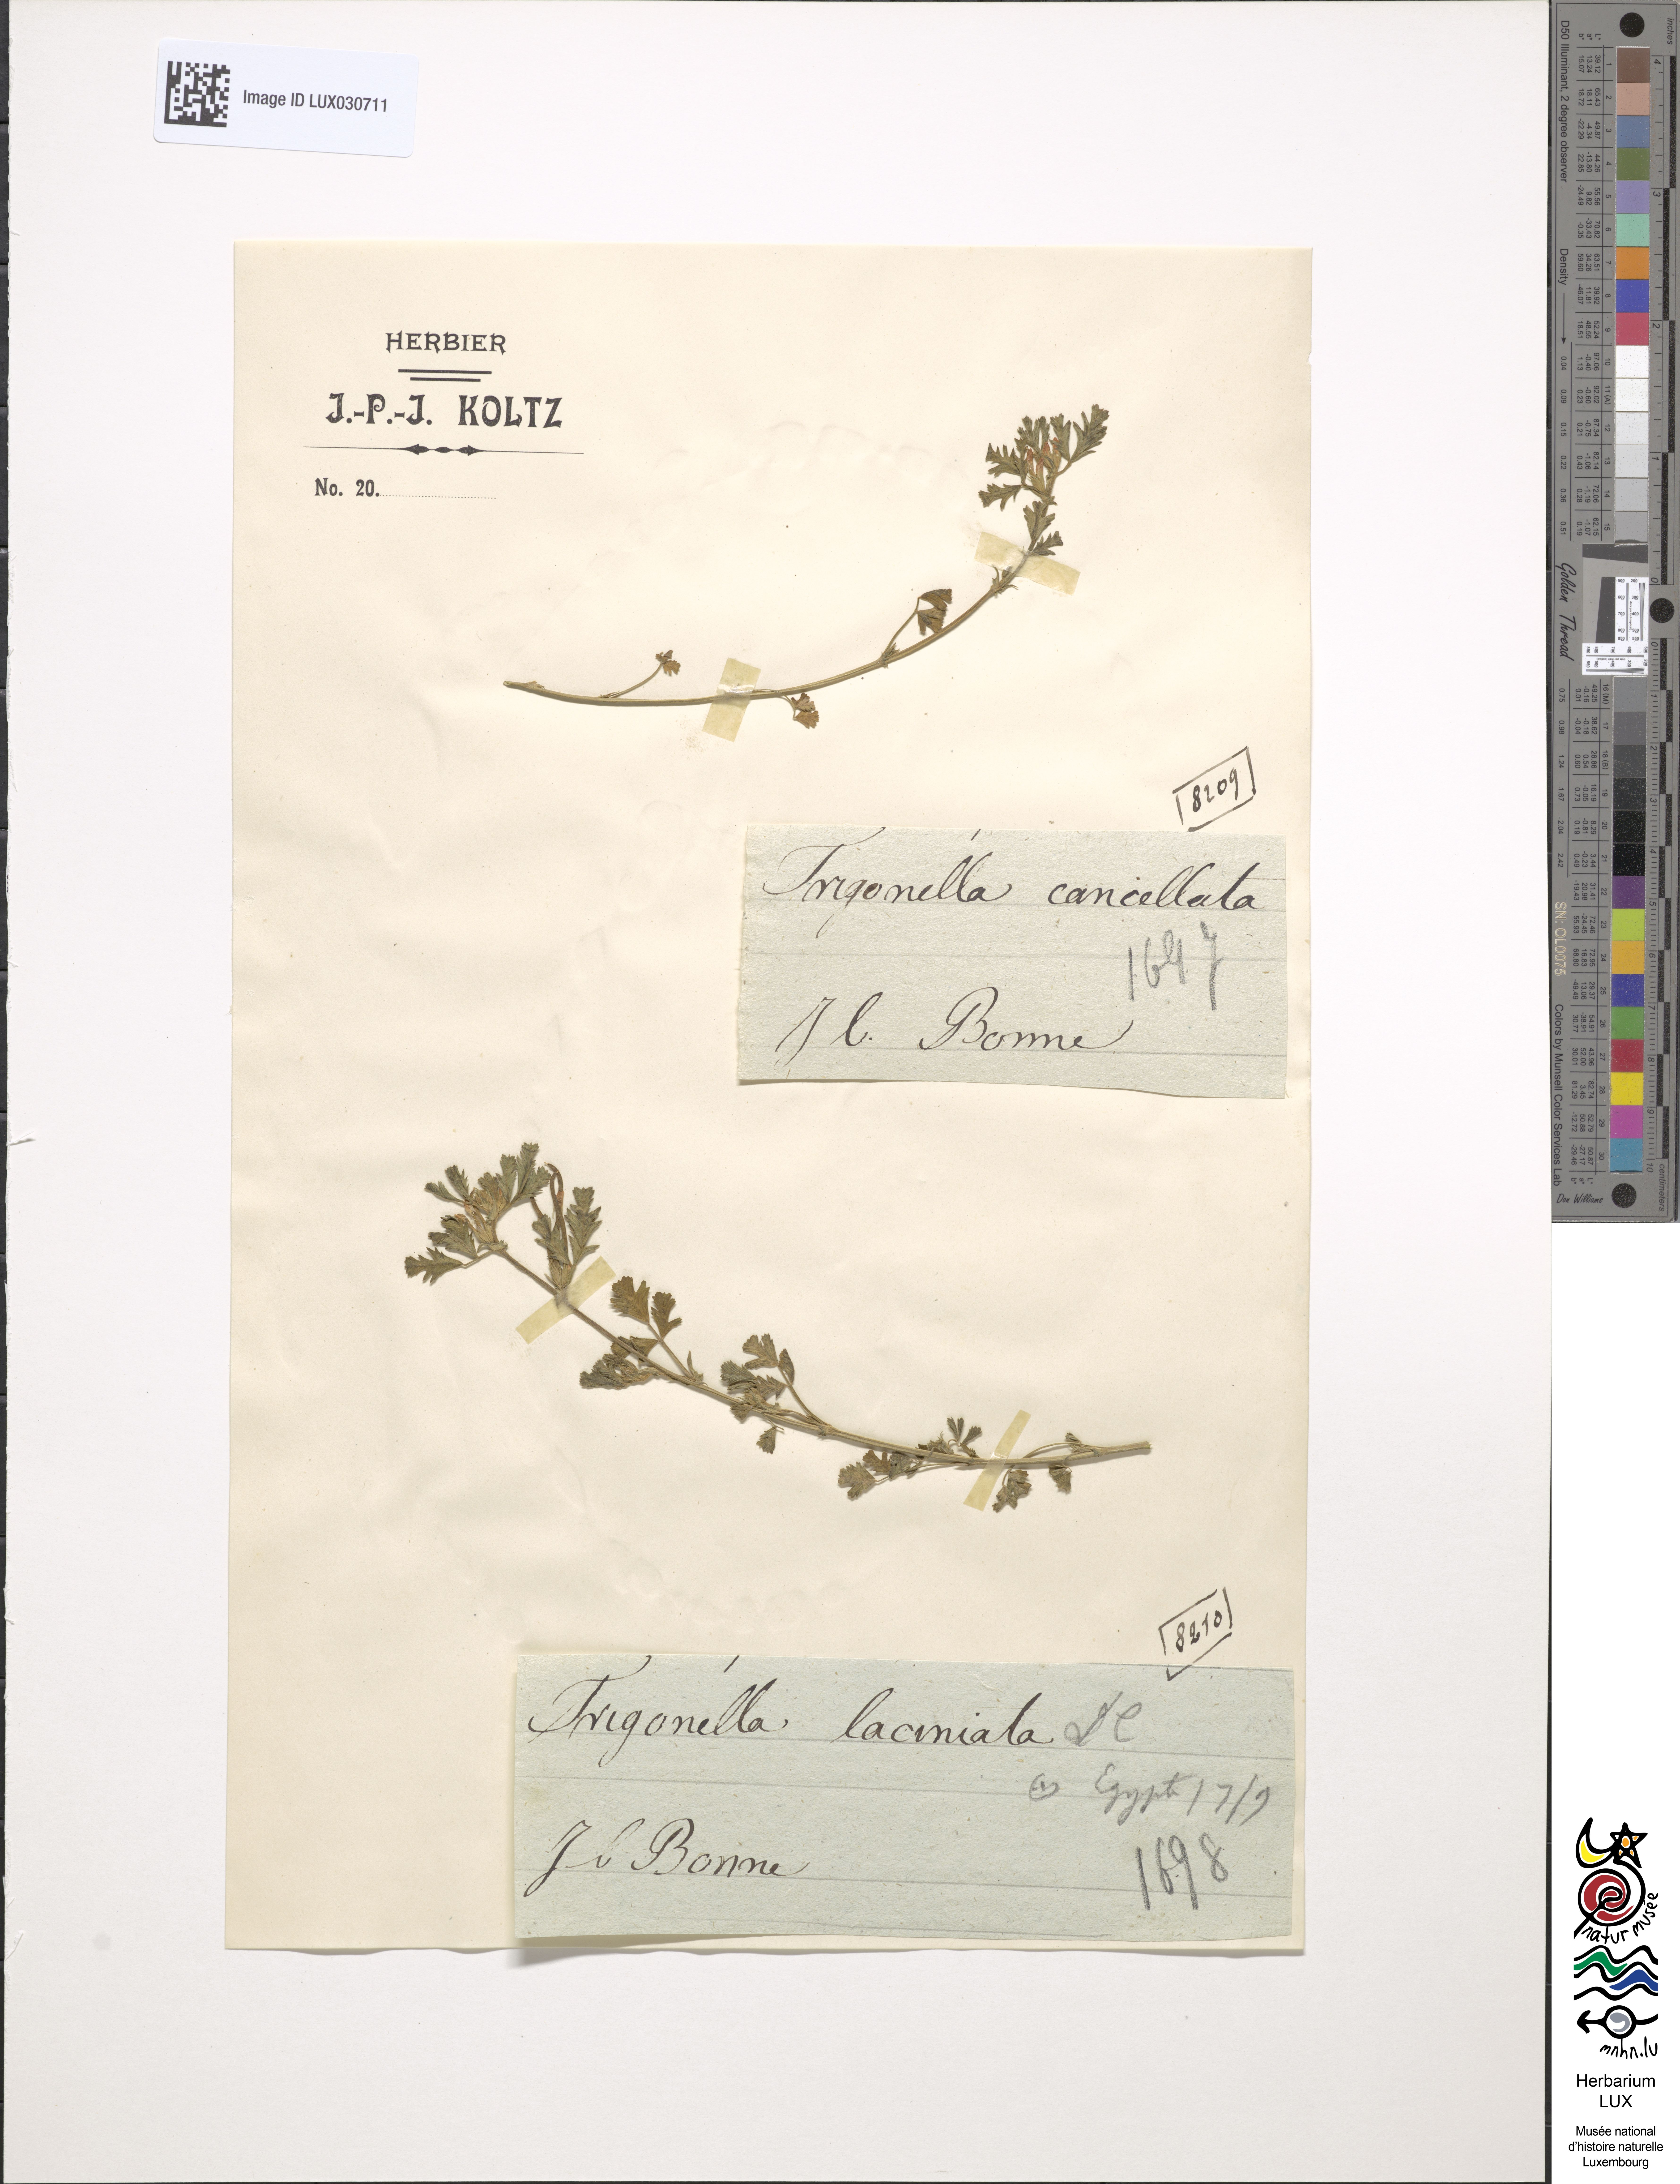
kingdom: Plantae
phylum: Tracheophyta
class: Magnoliopsida
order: Fabales
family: Fabaceae
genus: Medicago
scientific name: Medicago medicaginoides
